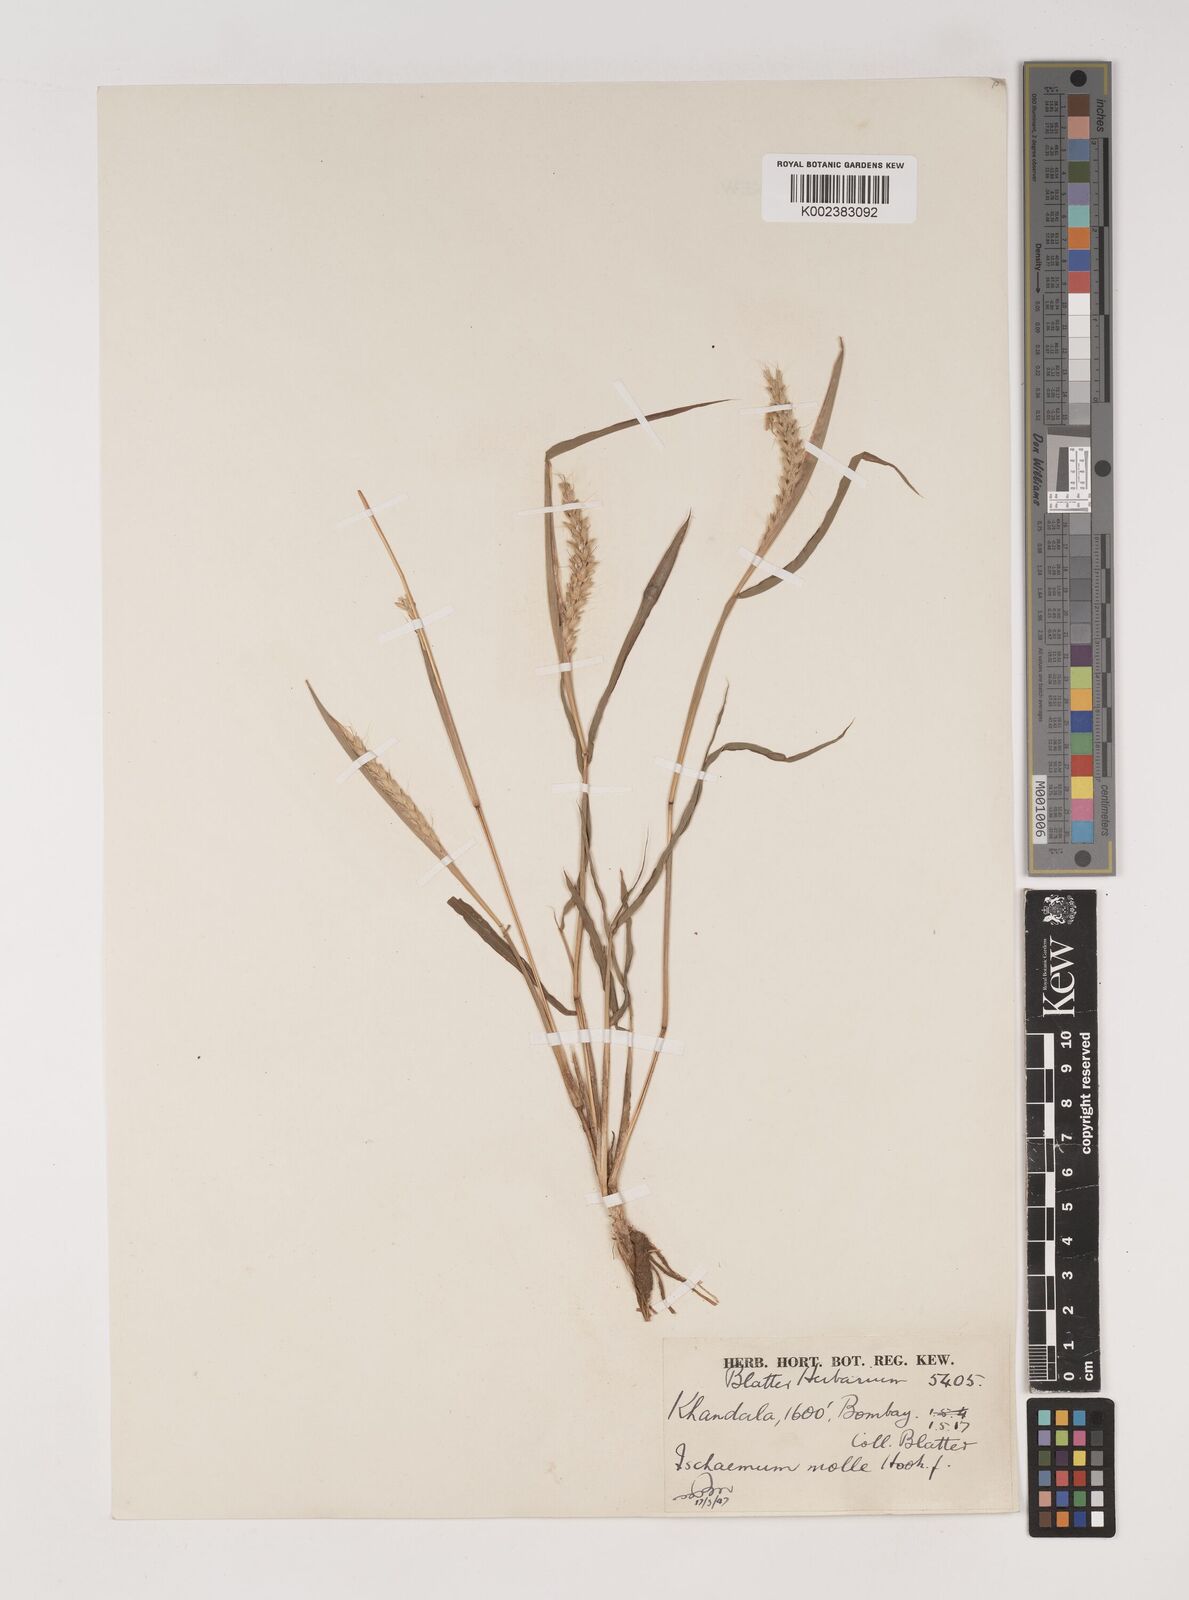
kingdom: Plantae
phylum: Tracheophyta
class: Liliopsida
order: Poales
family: Poaceae
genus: Ischaemum
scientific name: Ischaemum molle
